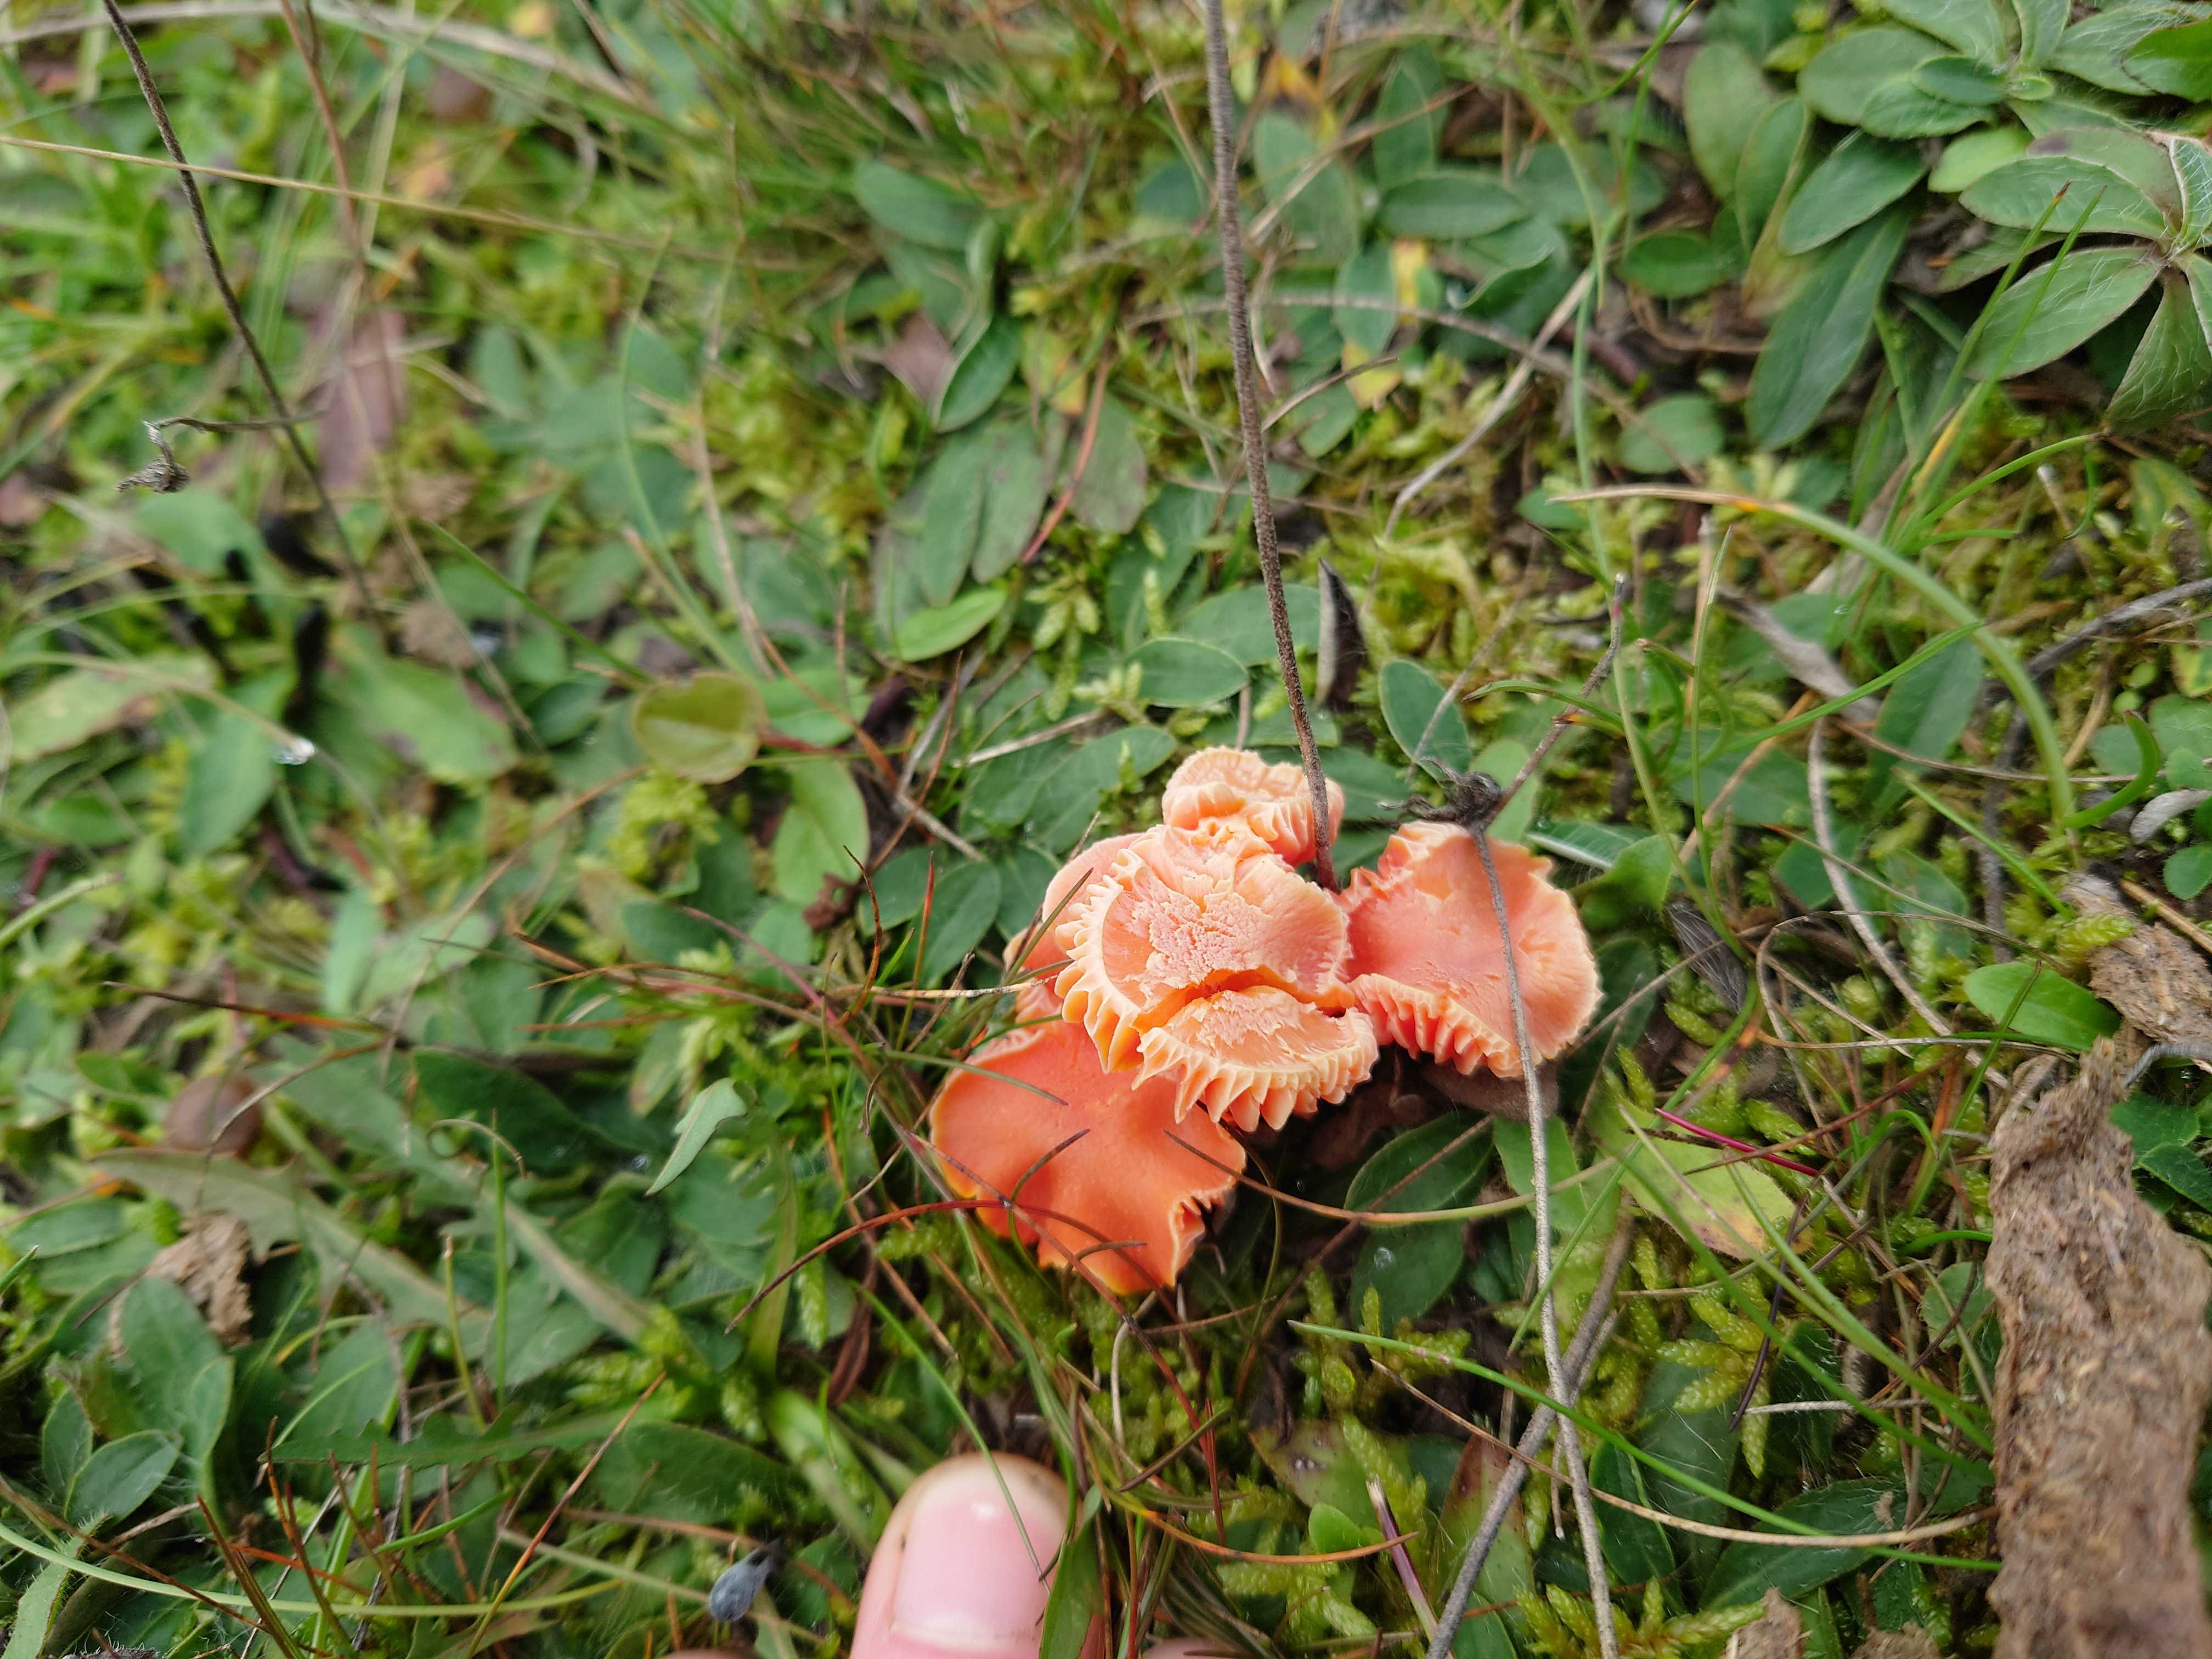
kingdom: Fungi
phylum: Basidiomycota
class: Agaricomycetes
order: Agaricales
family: Hygrophoraceae
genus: Hygrocybe
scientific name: Hygrocybe miniata
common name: mønje-vokshat
